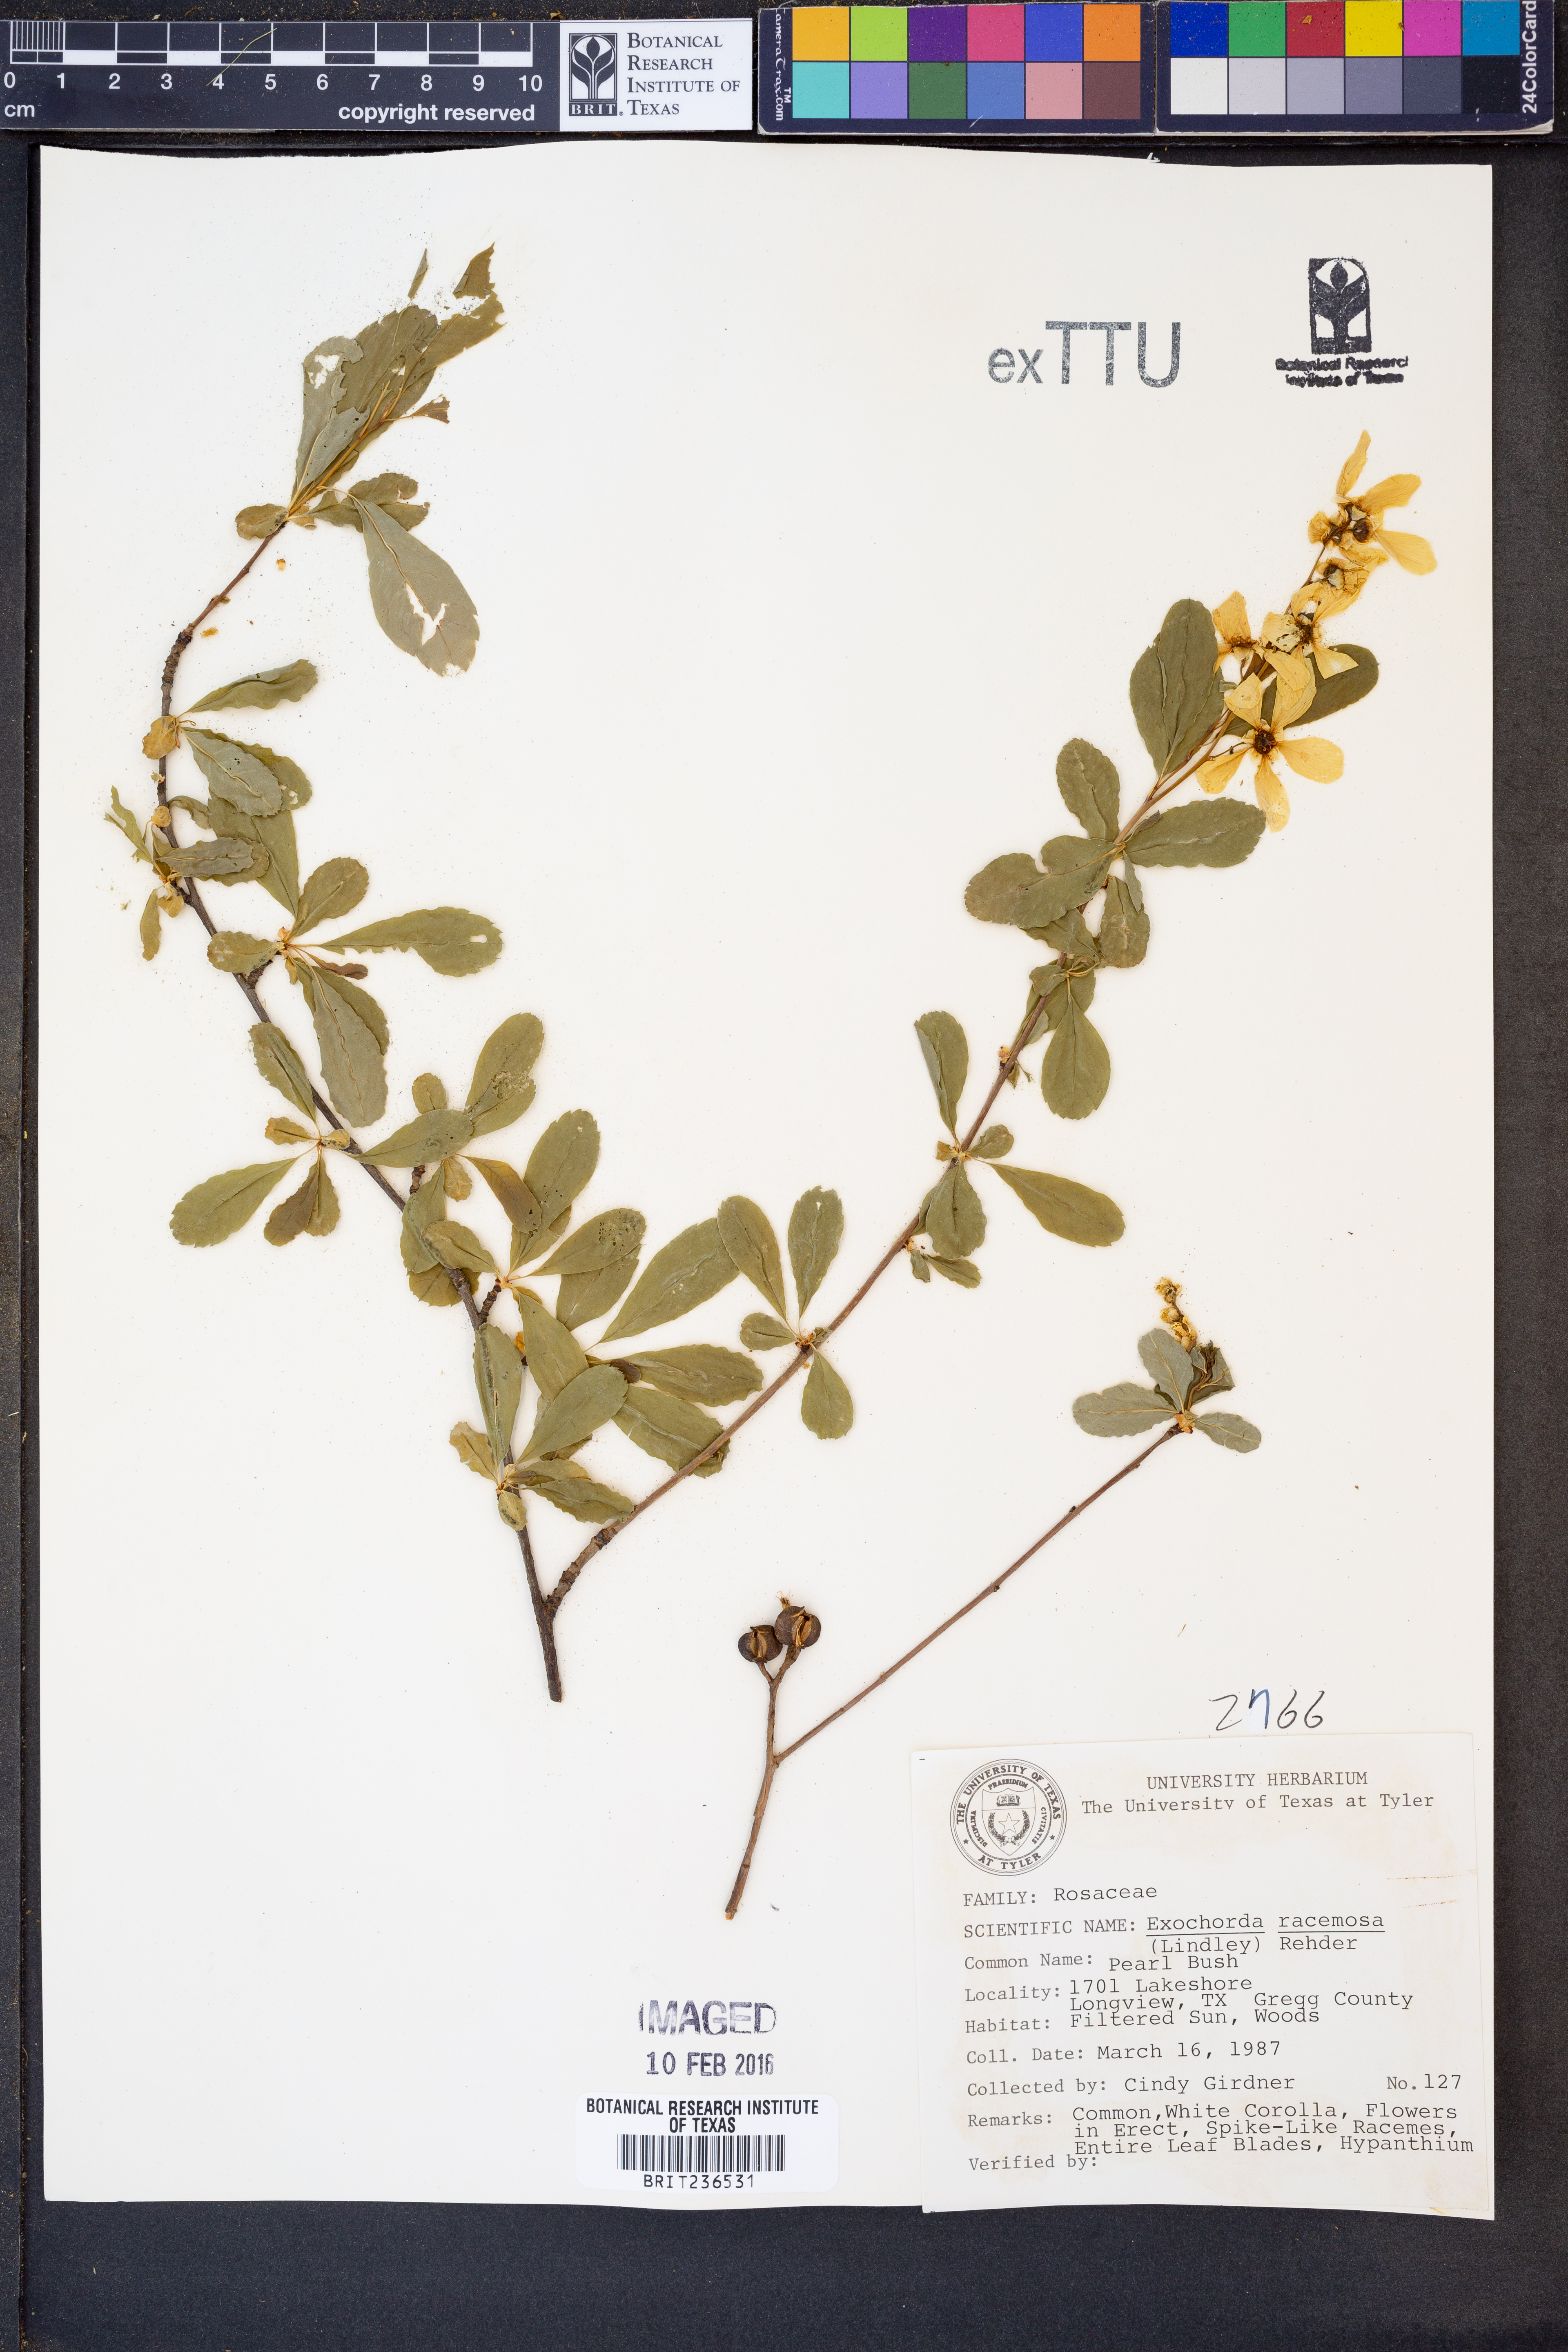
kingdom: Plantae
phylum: Tracheophyta
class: Magnoliopsida
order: Rosales
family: Rosaceae
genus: Exochorda
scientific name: Exochorda racemosa
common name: Common pearlbrush
